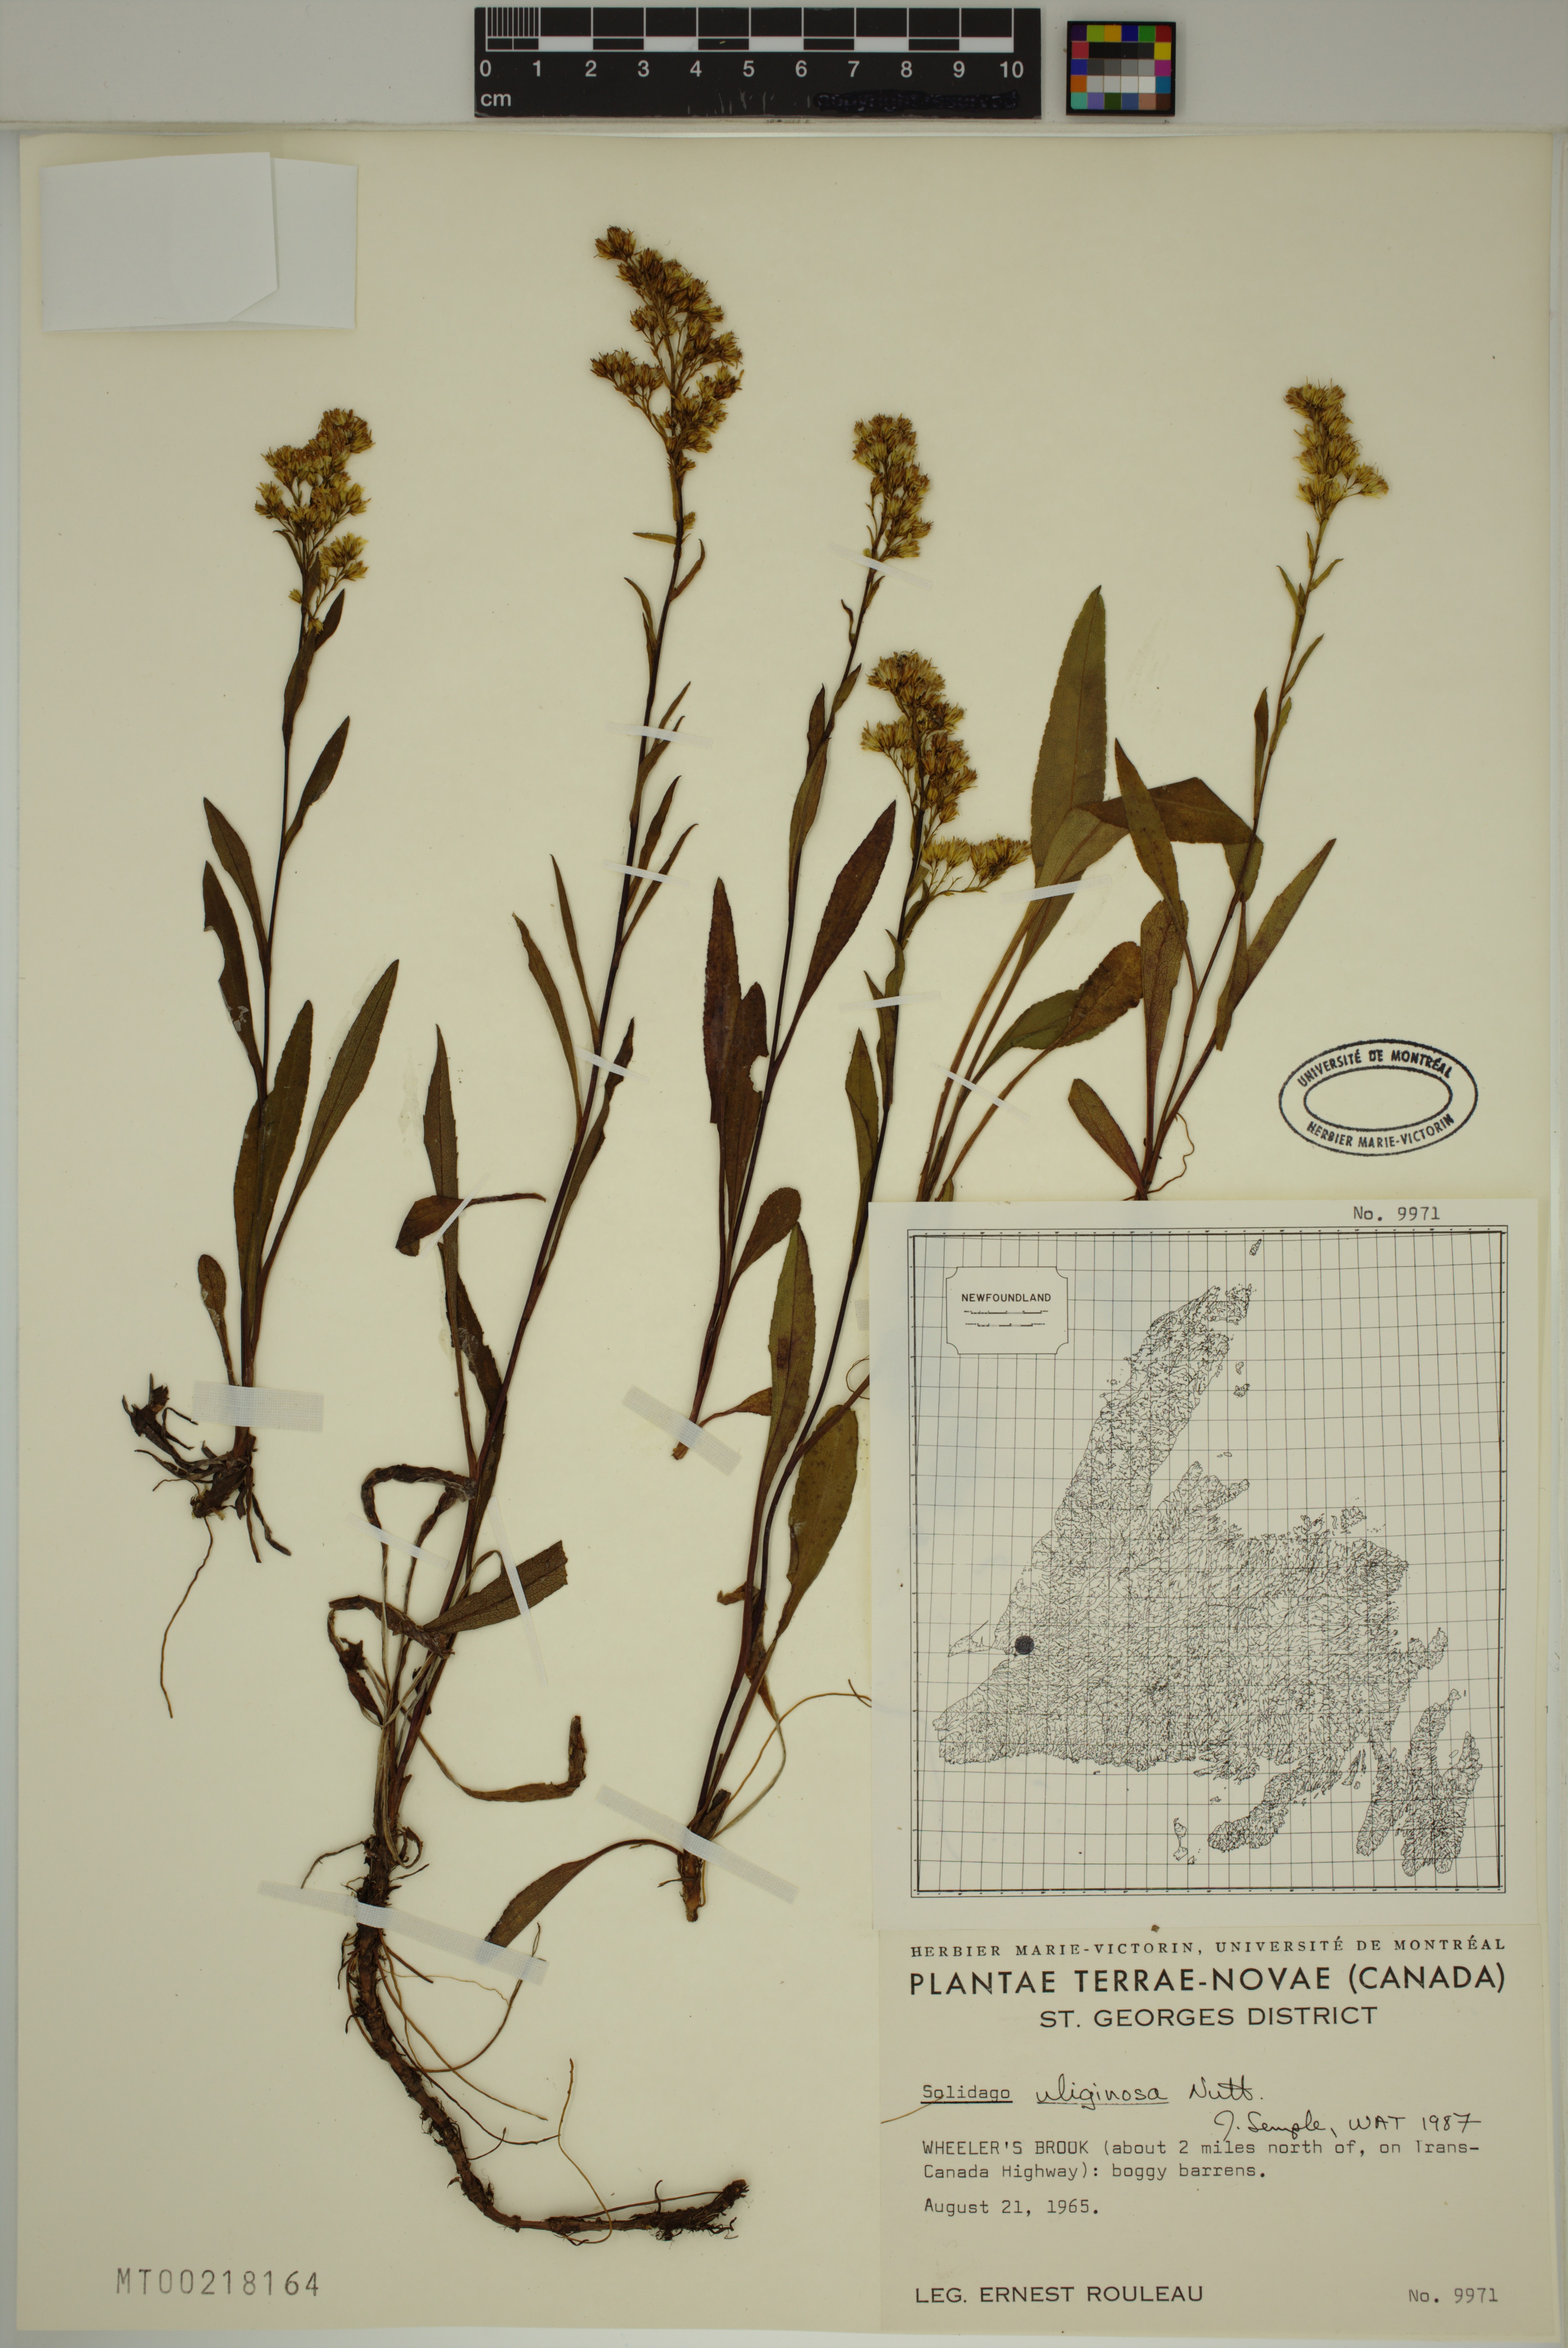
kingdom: Plantae
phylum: Tracheophyta
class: Magnoliopsida
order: Asterales
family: Asteraceae
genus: Solidago
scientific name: Solidago uliginosa
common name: Bog goldenrod
